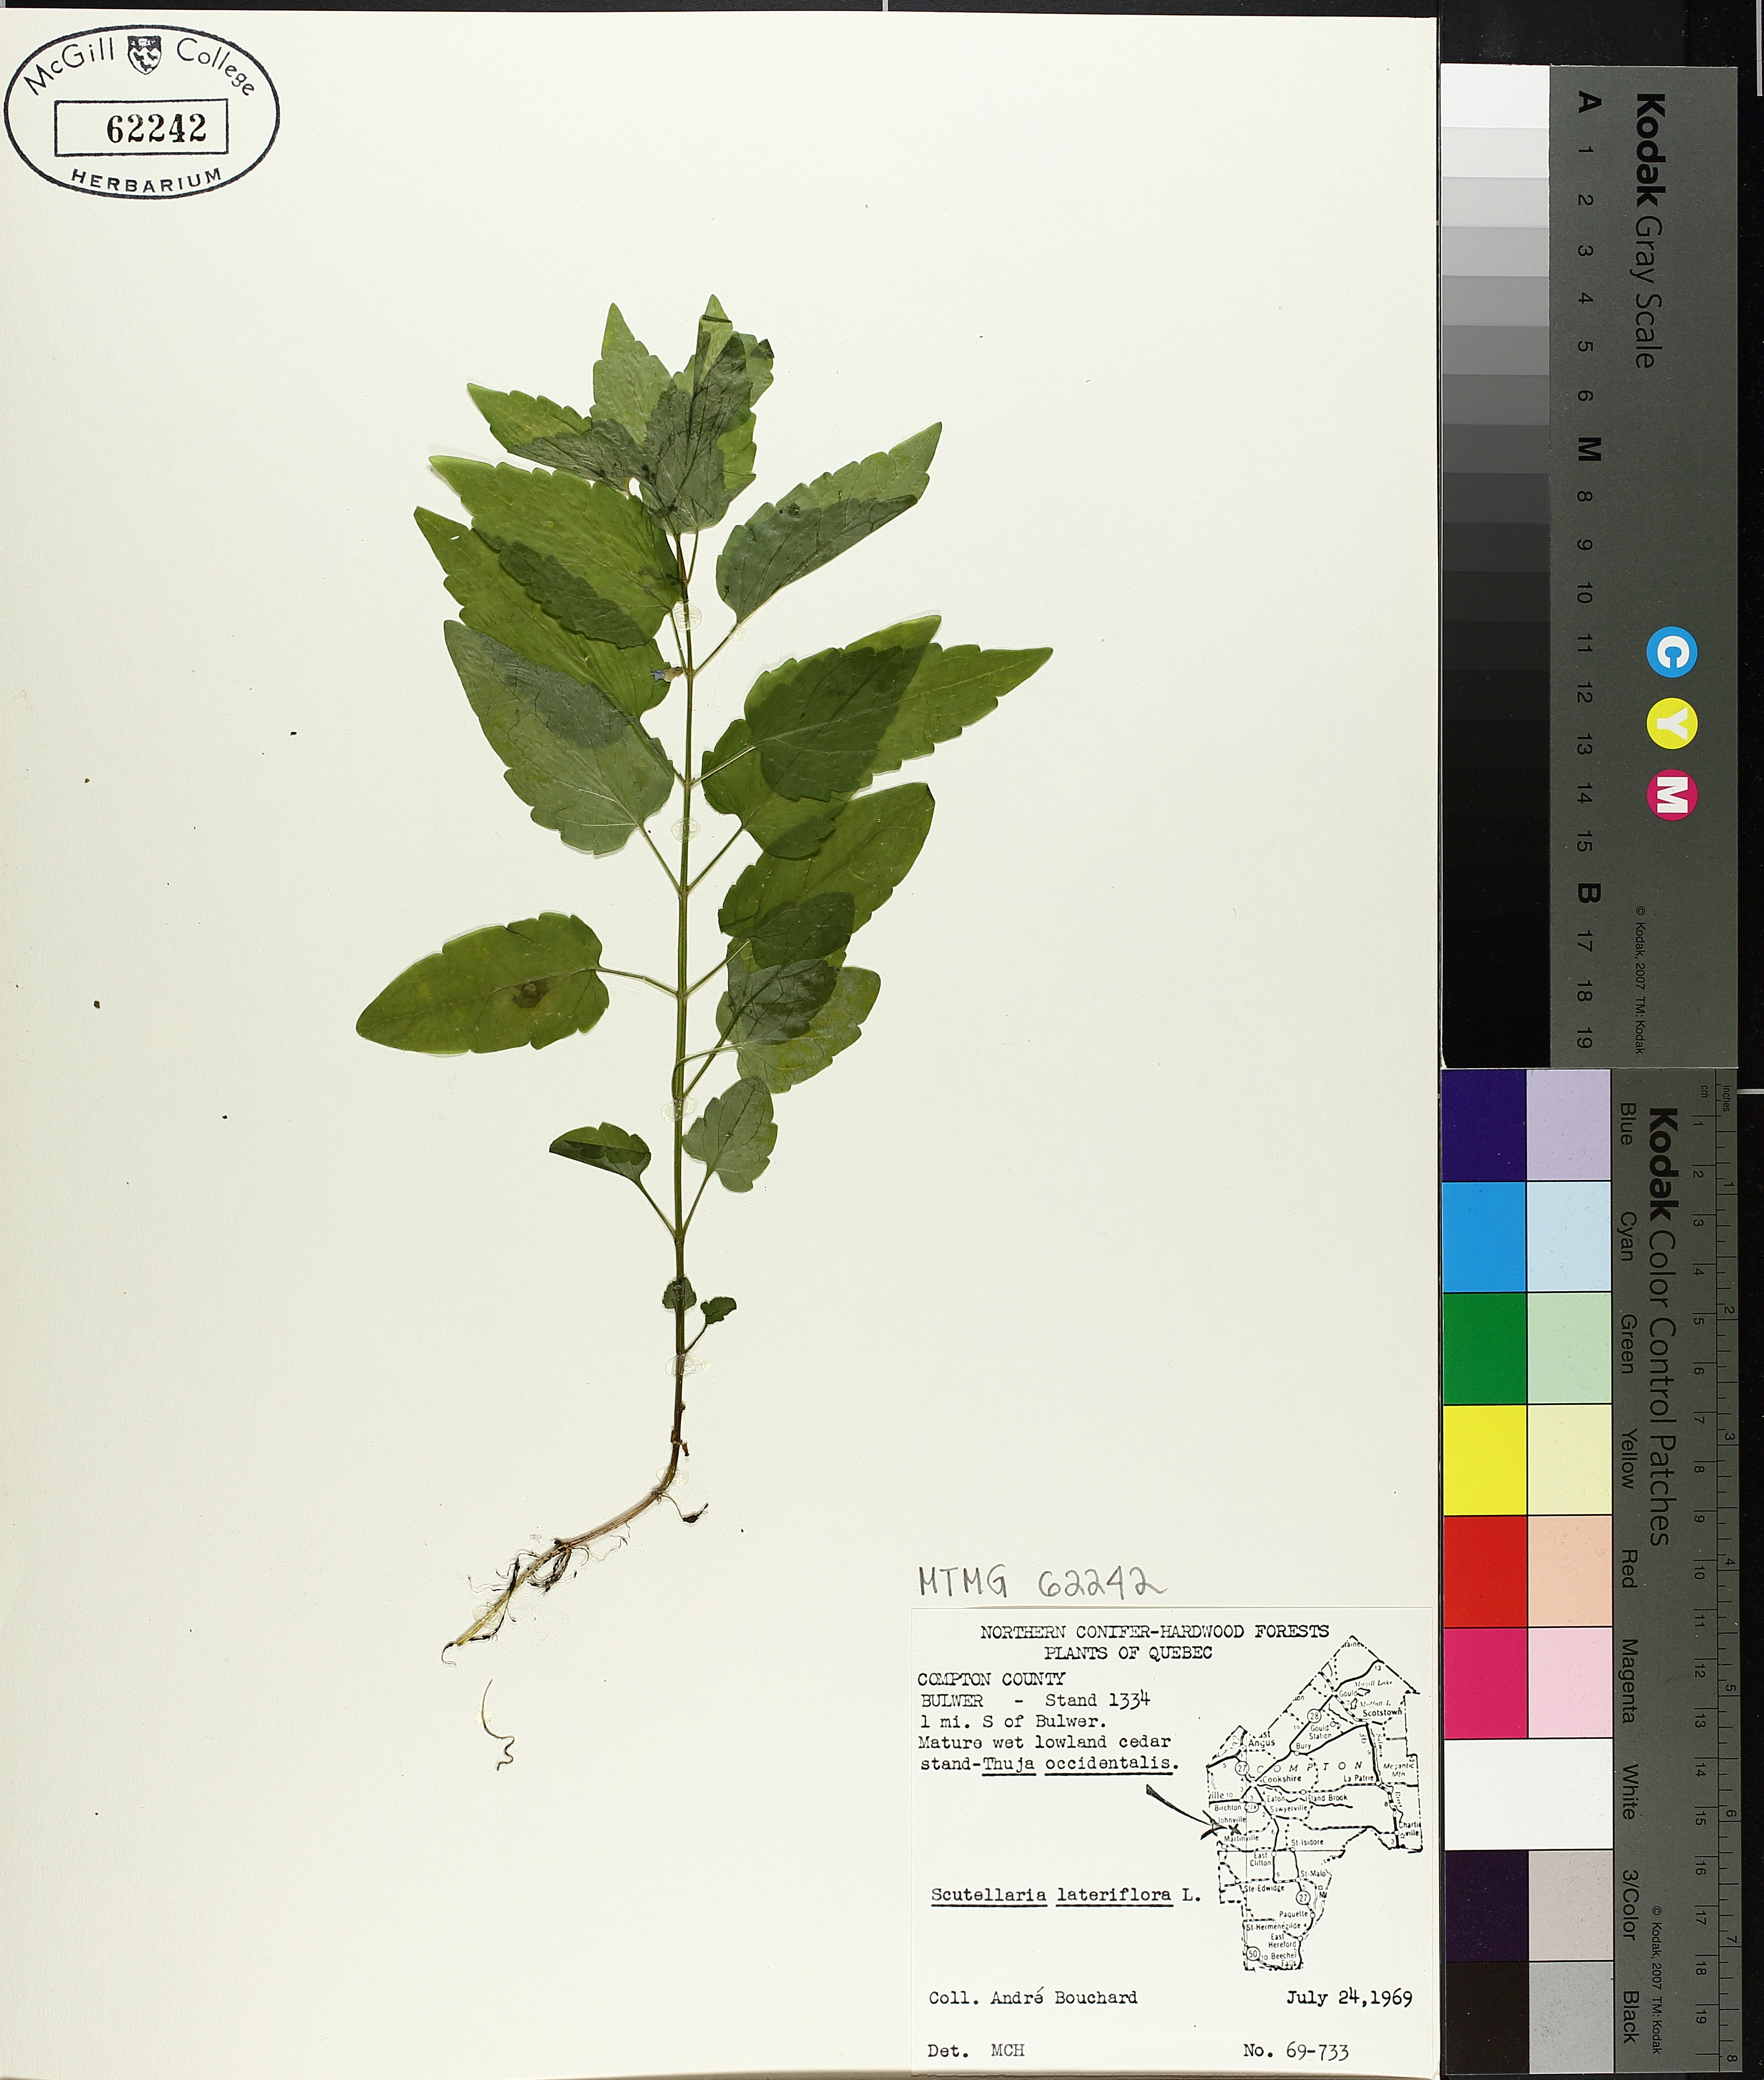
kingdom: Plantae
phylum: Tracheophyta
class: Magnoliopsida
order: Lamiales
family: Lamiaceae
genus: Scutellaria
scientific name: Scutellaria lateriflora
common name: Blue skullcap
